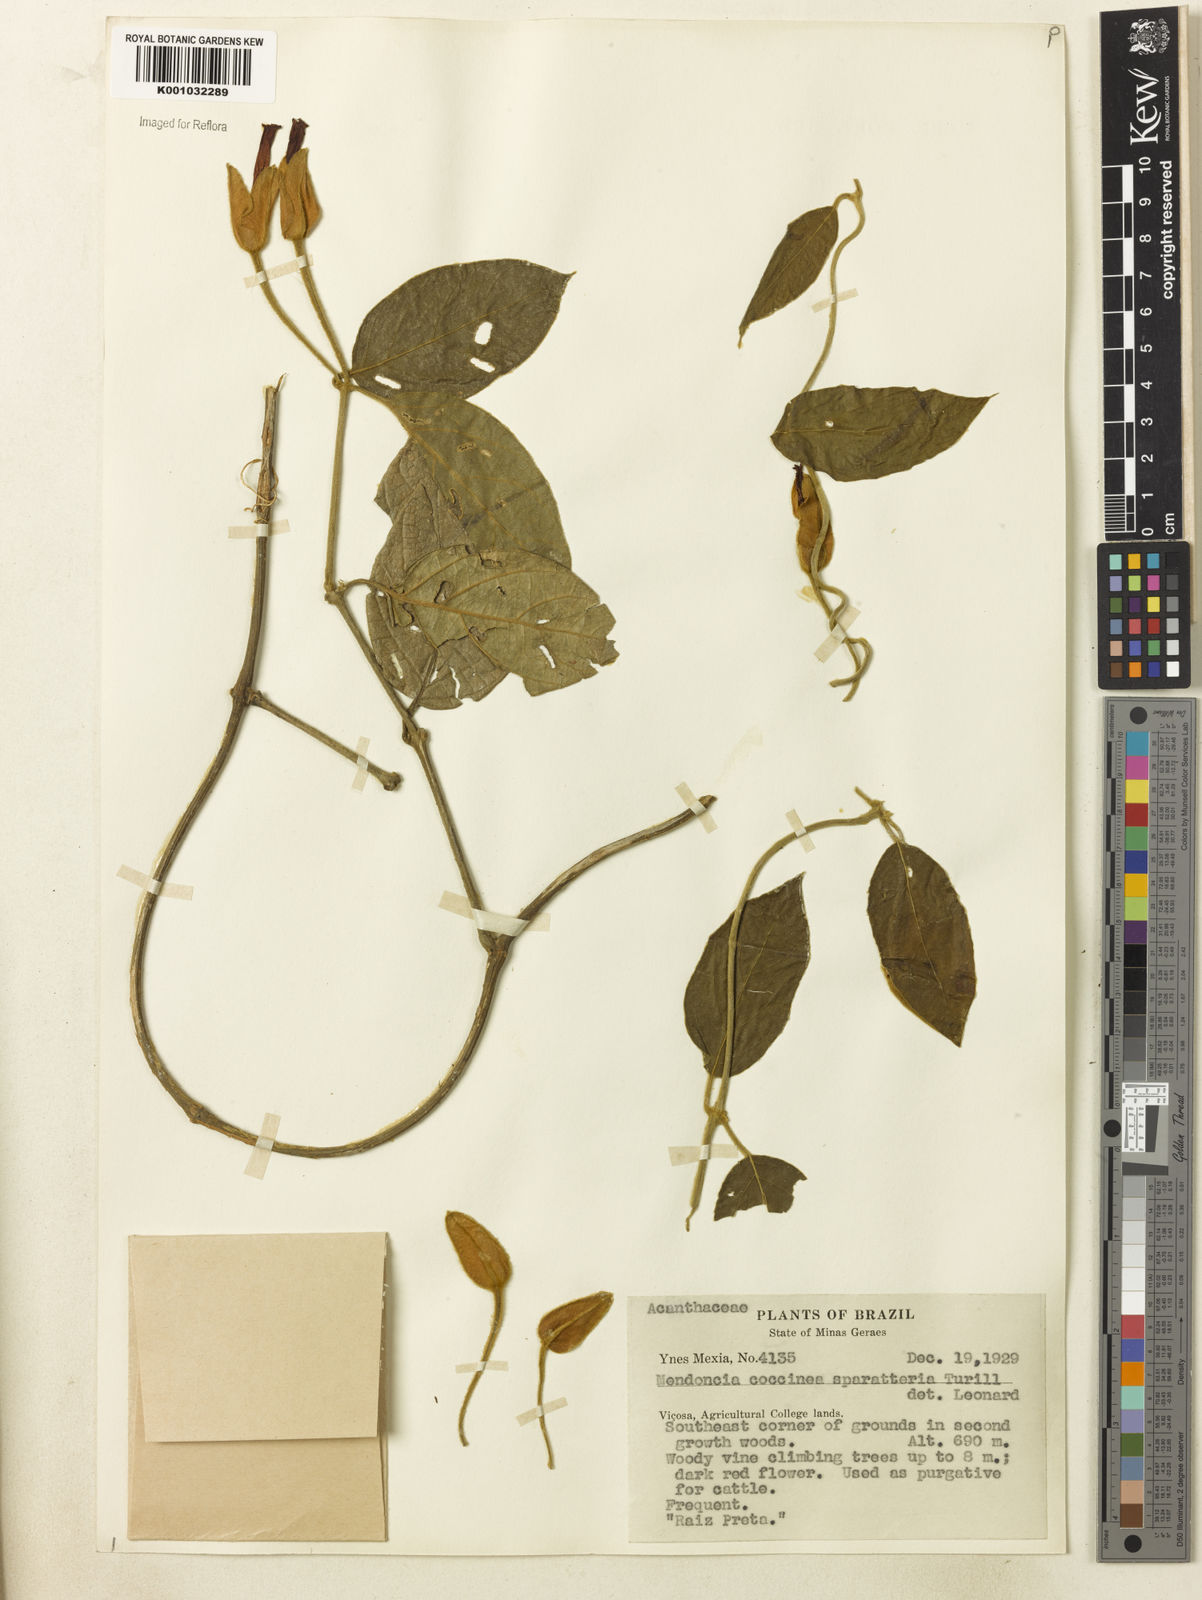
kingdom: Plantae
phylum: Tracheophyta
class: Magnoliopsida
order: Lamiales
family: Acanthaceae
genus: Mendoncia
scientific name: Mendoncia coccinea
